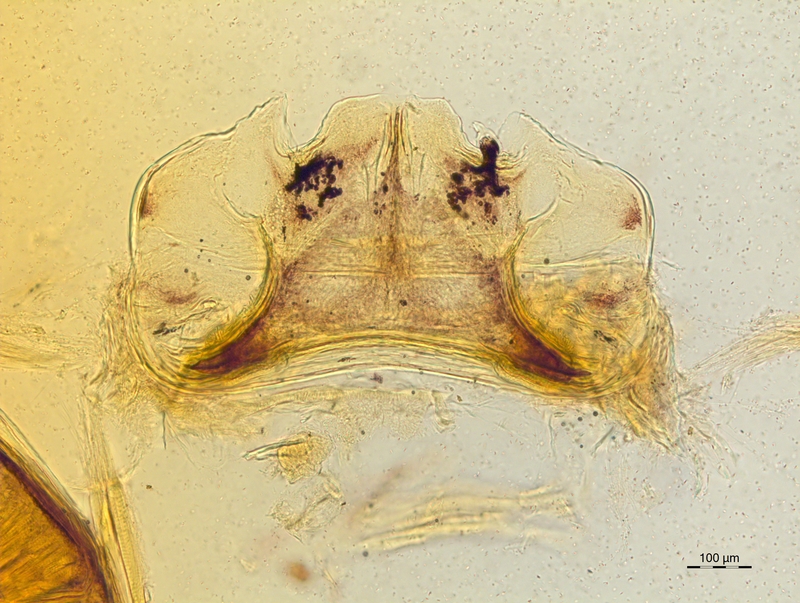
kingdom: Animalia
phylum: Arthropoda
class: Diplopoda
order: Chordeumatida
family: Craspedosomatidae
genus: Craspedosoma
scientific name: Craspedosoma taurinorum
